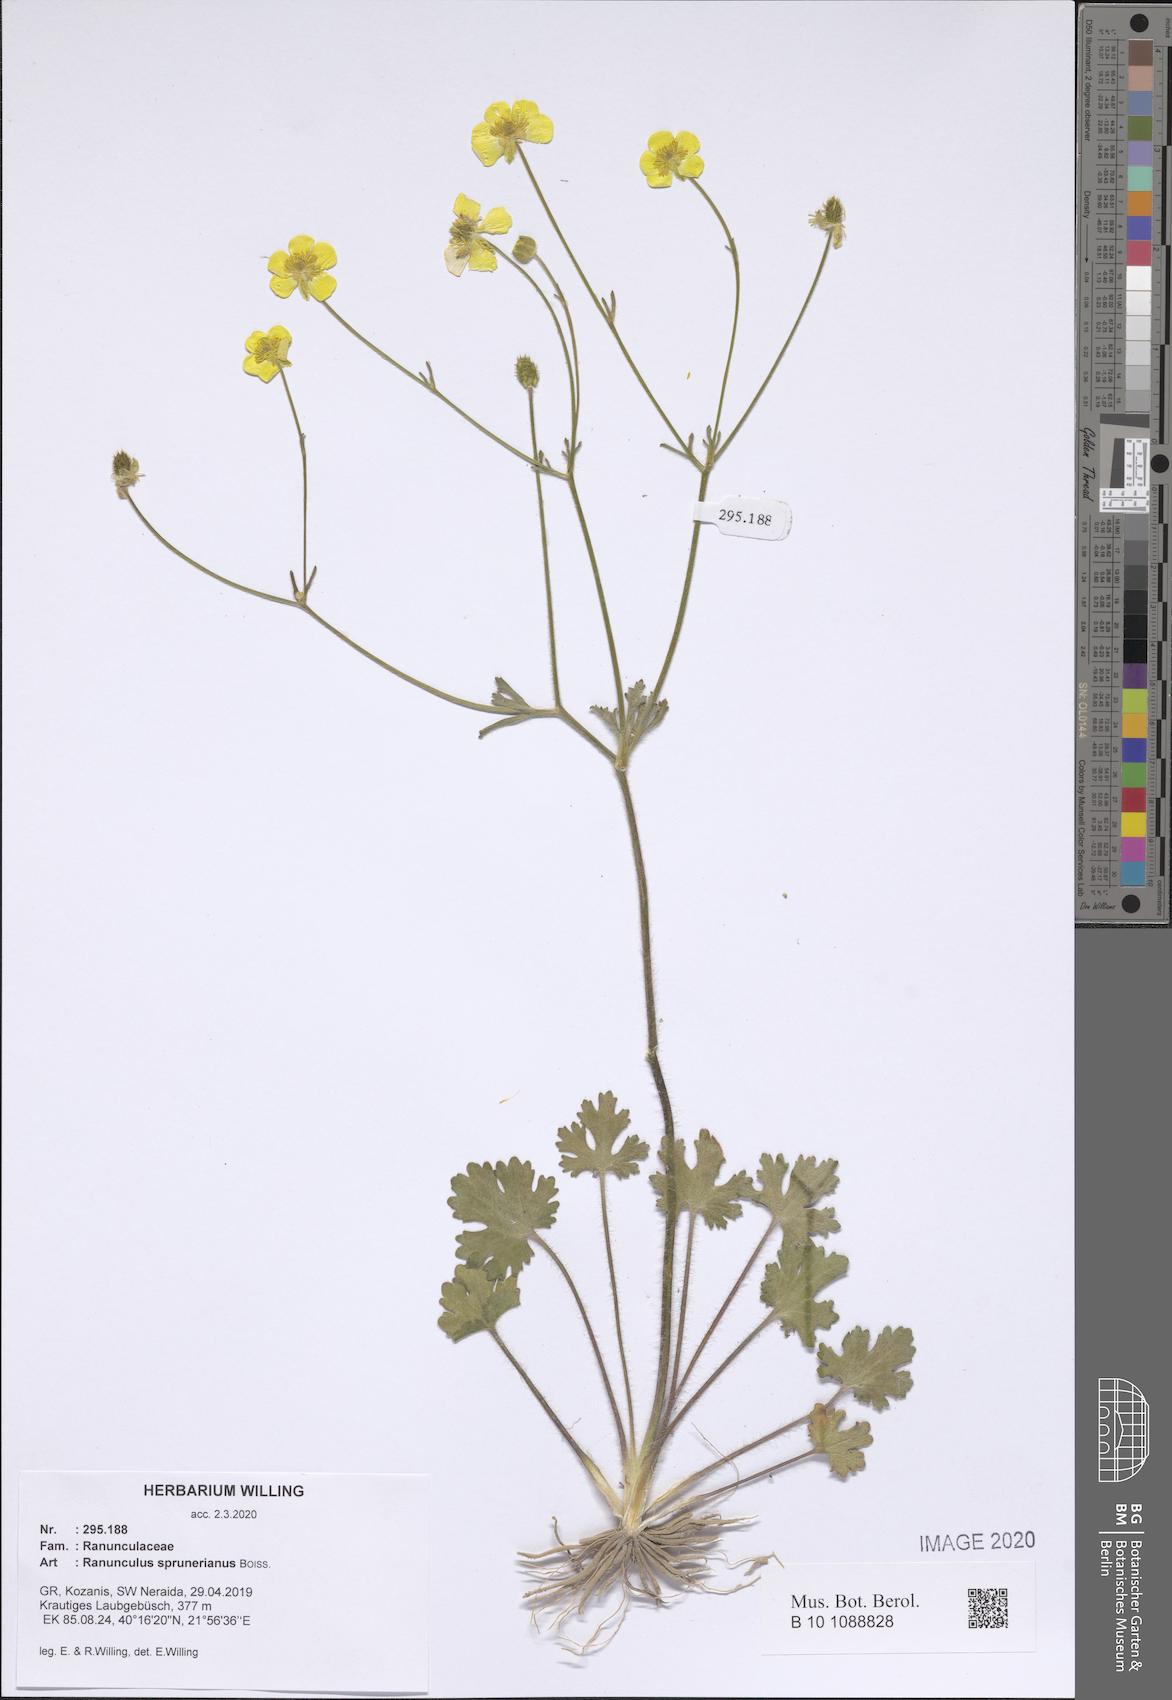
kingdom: Plantae
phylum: Tracheophyta
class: Magnoliopsida
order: Ranunculales
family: Ranunculaceae
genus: Ranunculus
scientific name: Ranunculus sprunerianus
